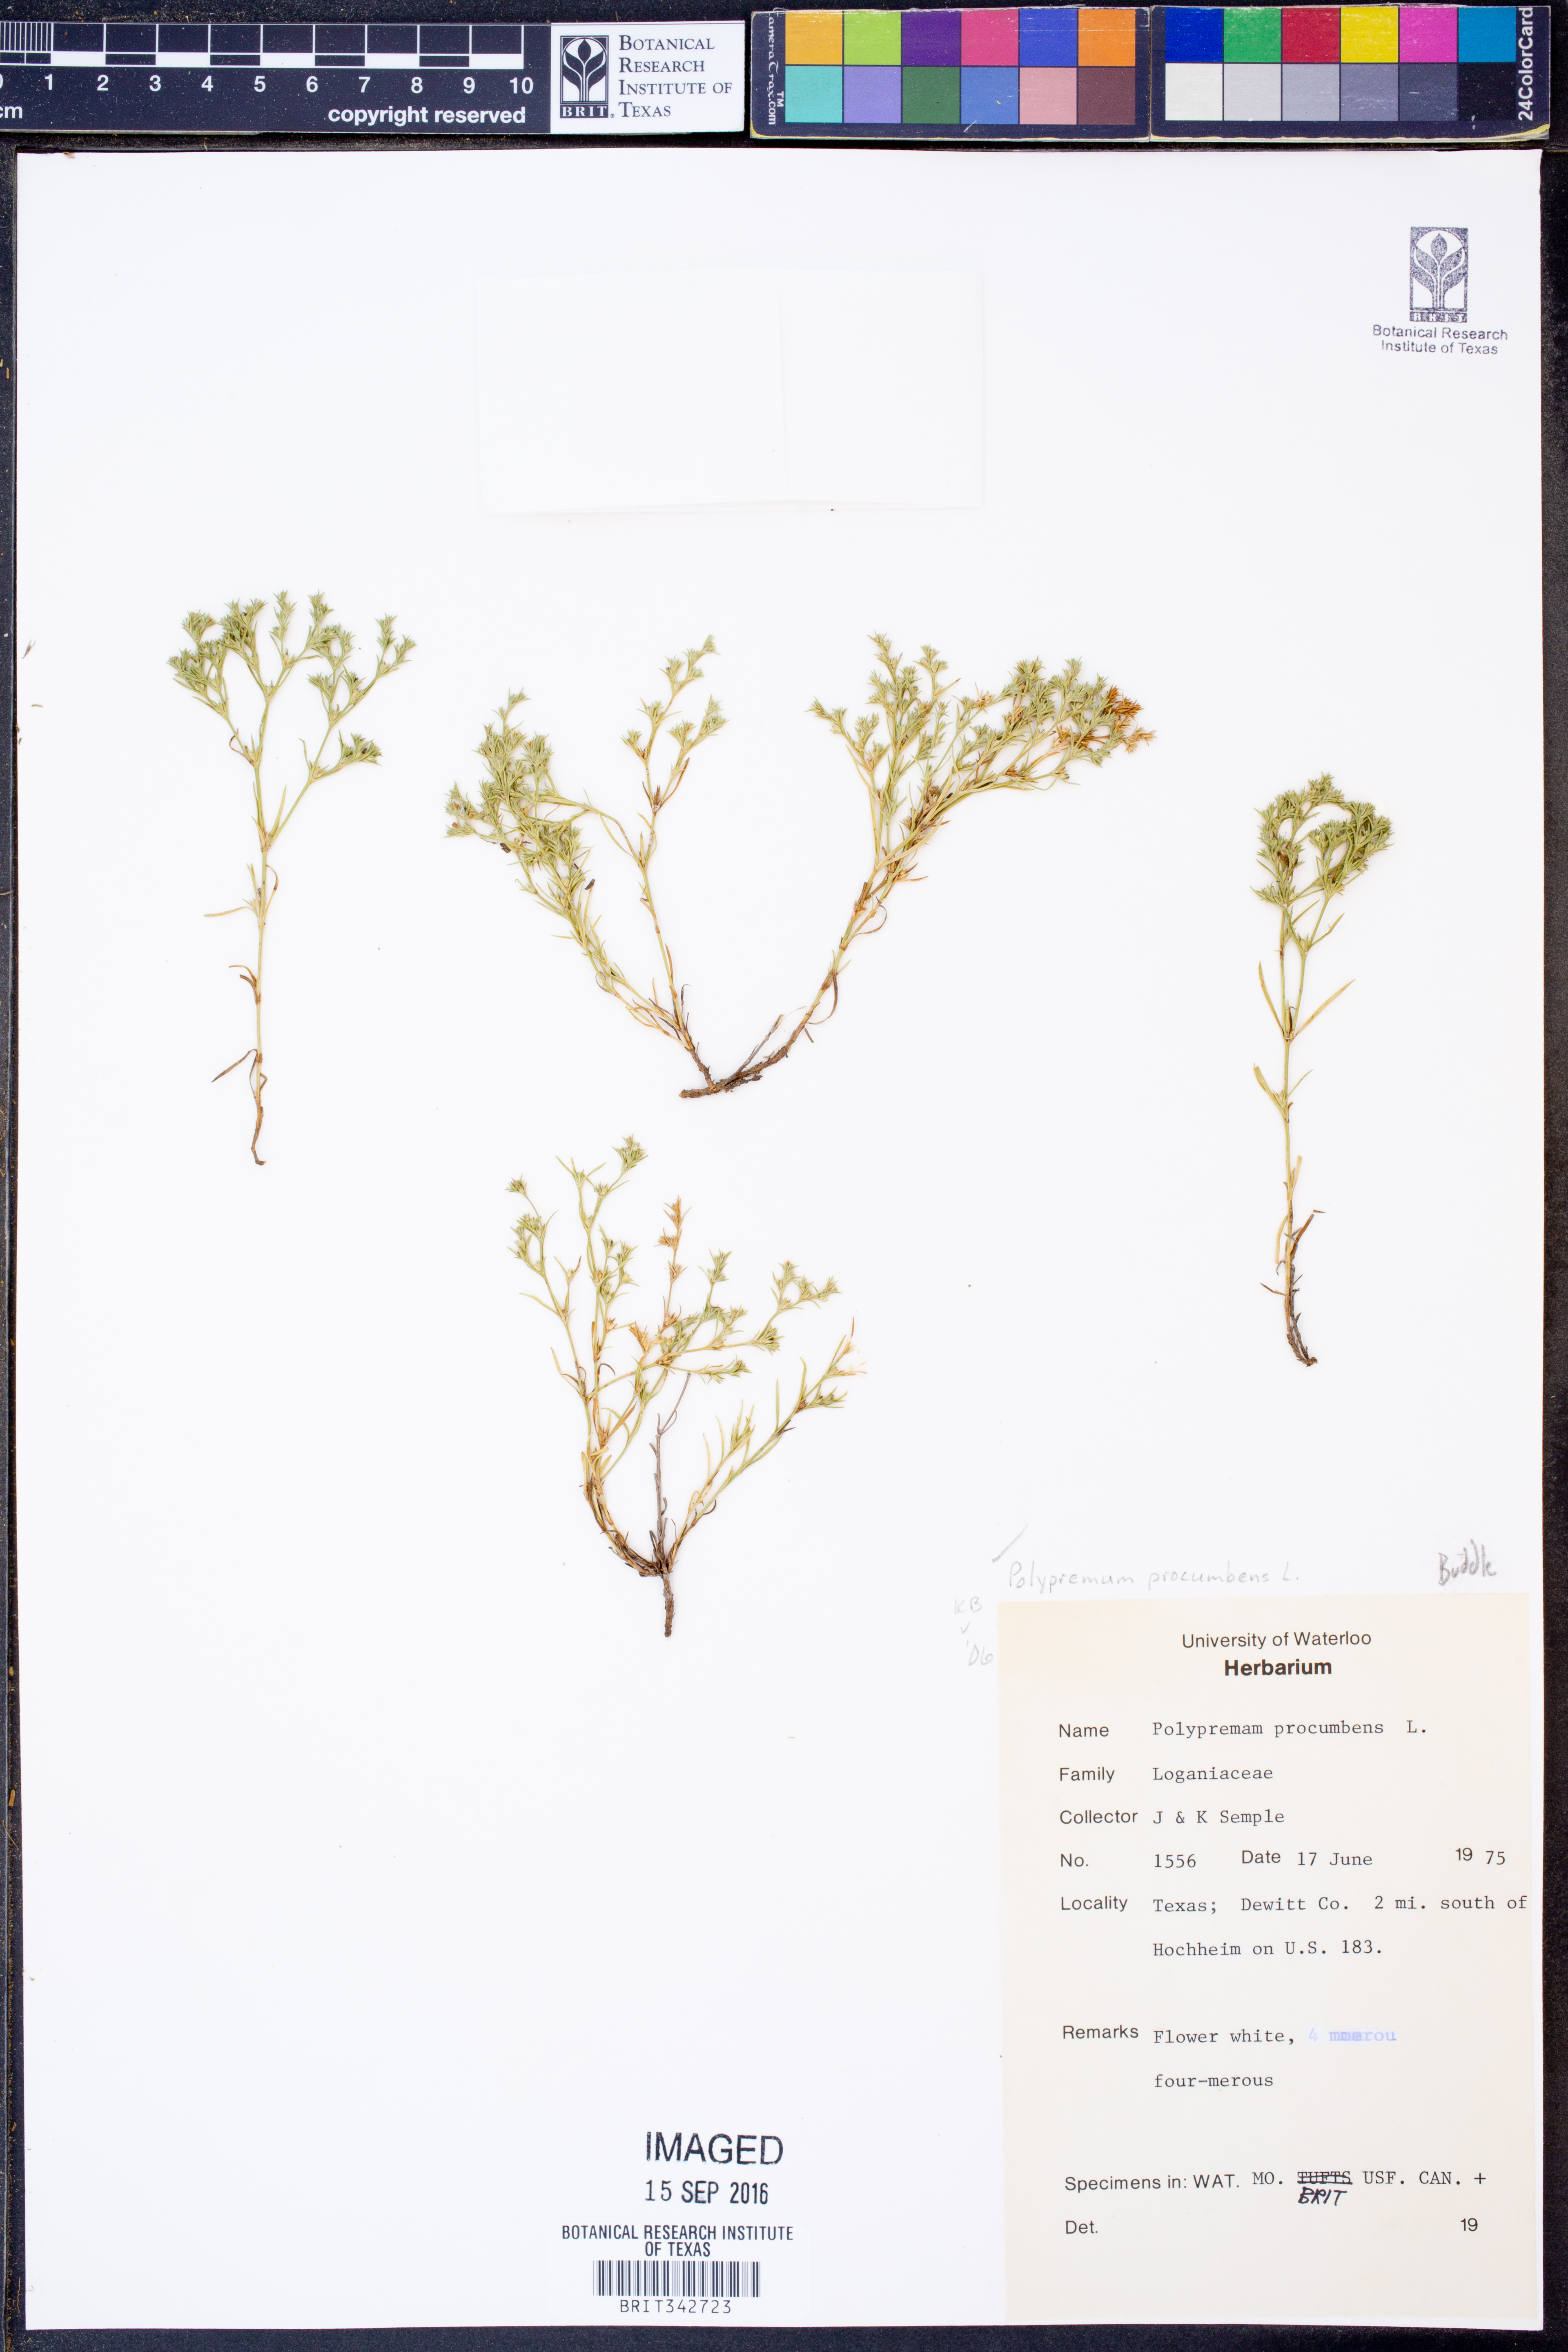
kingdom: Plantae
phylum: Tracheophyta
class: Magnoliopsida
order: Lamiales
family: Tetrachondraceae
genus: Polypremum
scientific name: Polypremum procumbens
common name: Juniper-leaf
